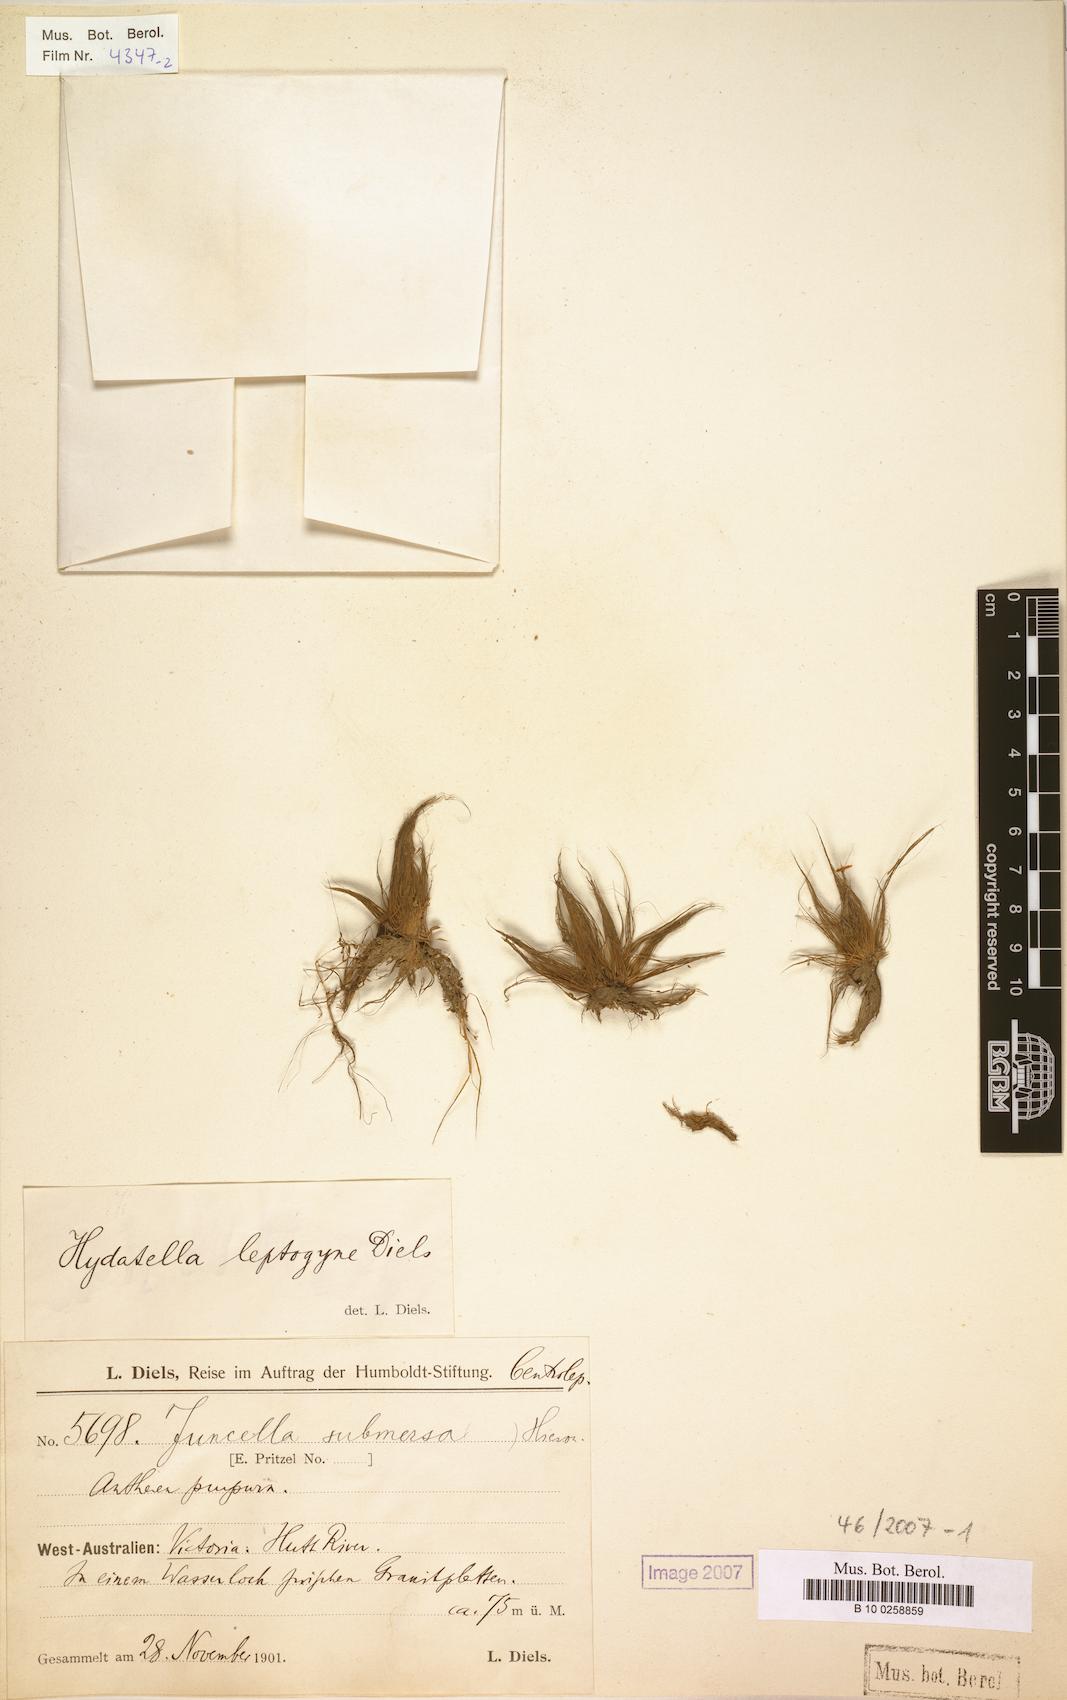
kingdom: Plantae
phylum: Tracheophyta
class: Magnoliopsida
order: Nymphaeales
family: Hydatellaceae
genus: Trithuria
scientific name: Trithuria australis
